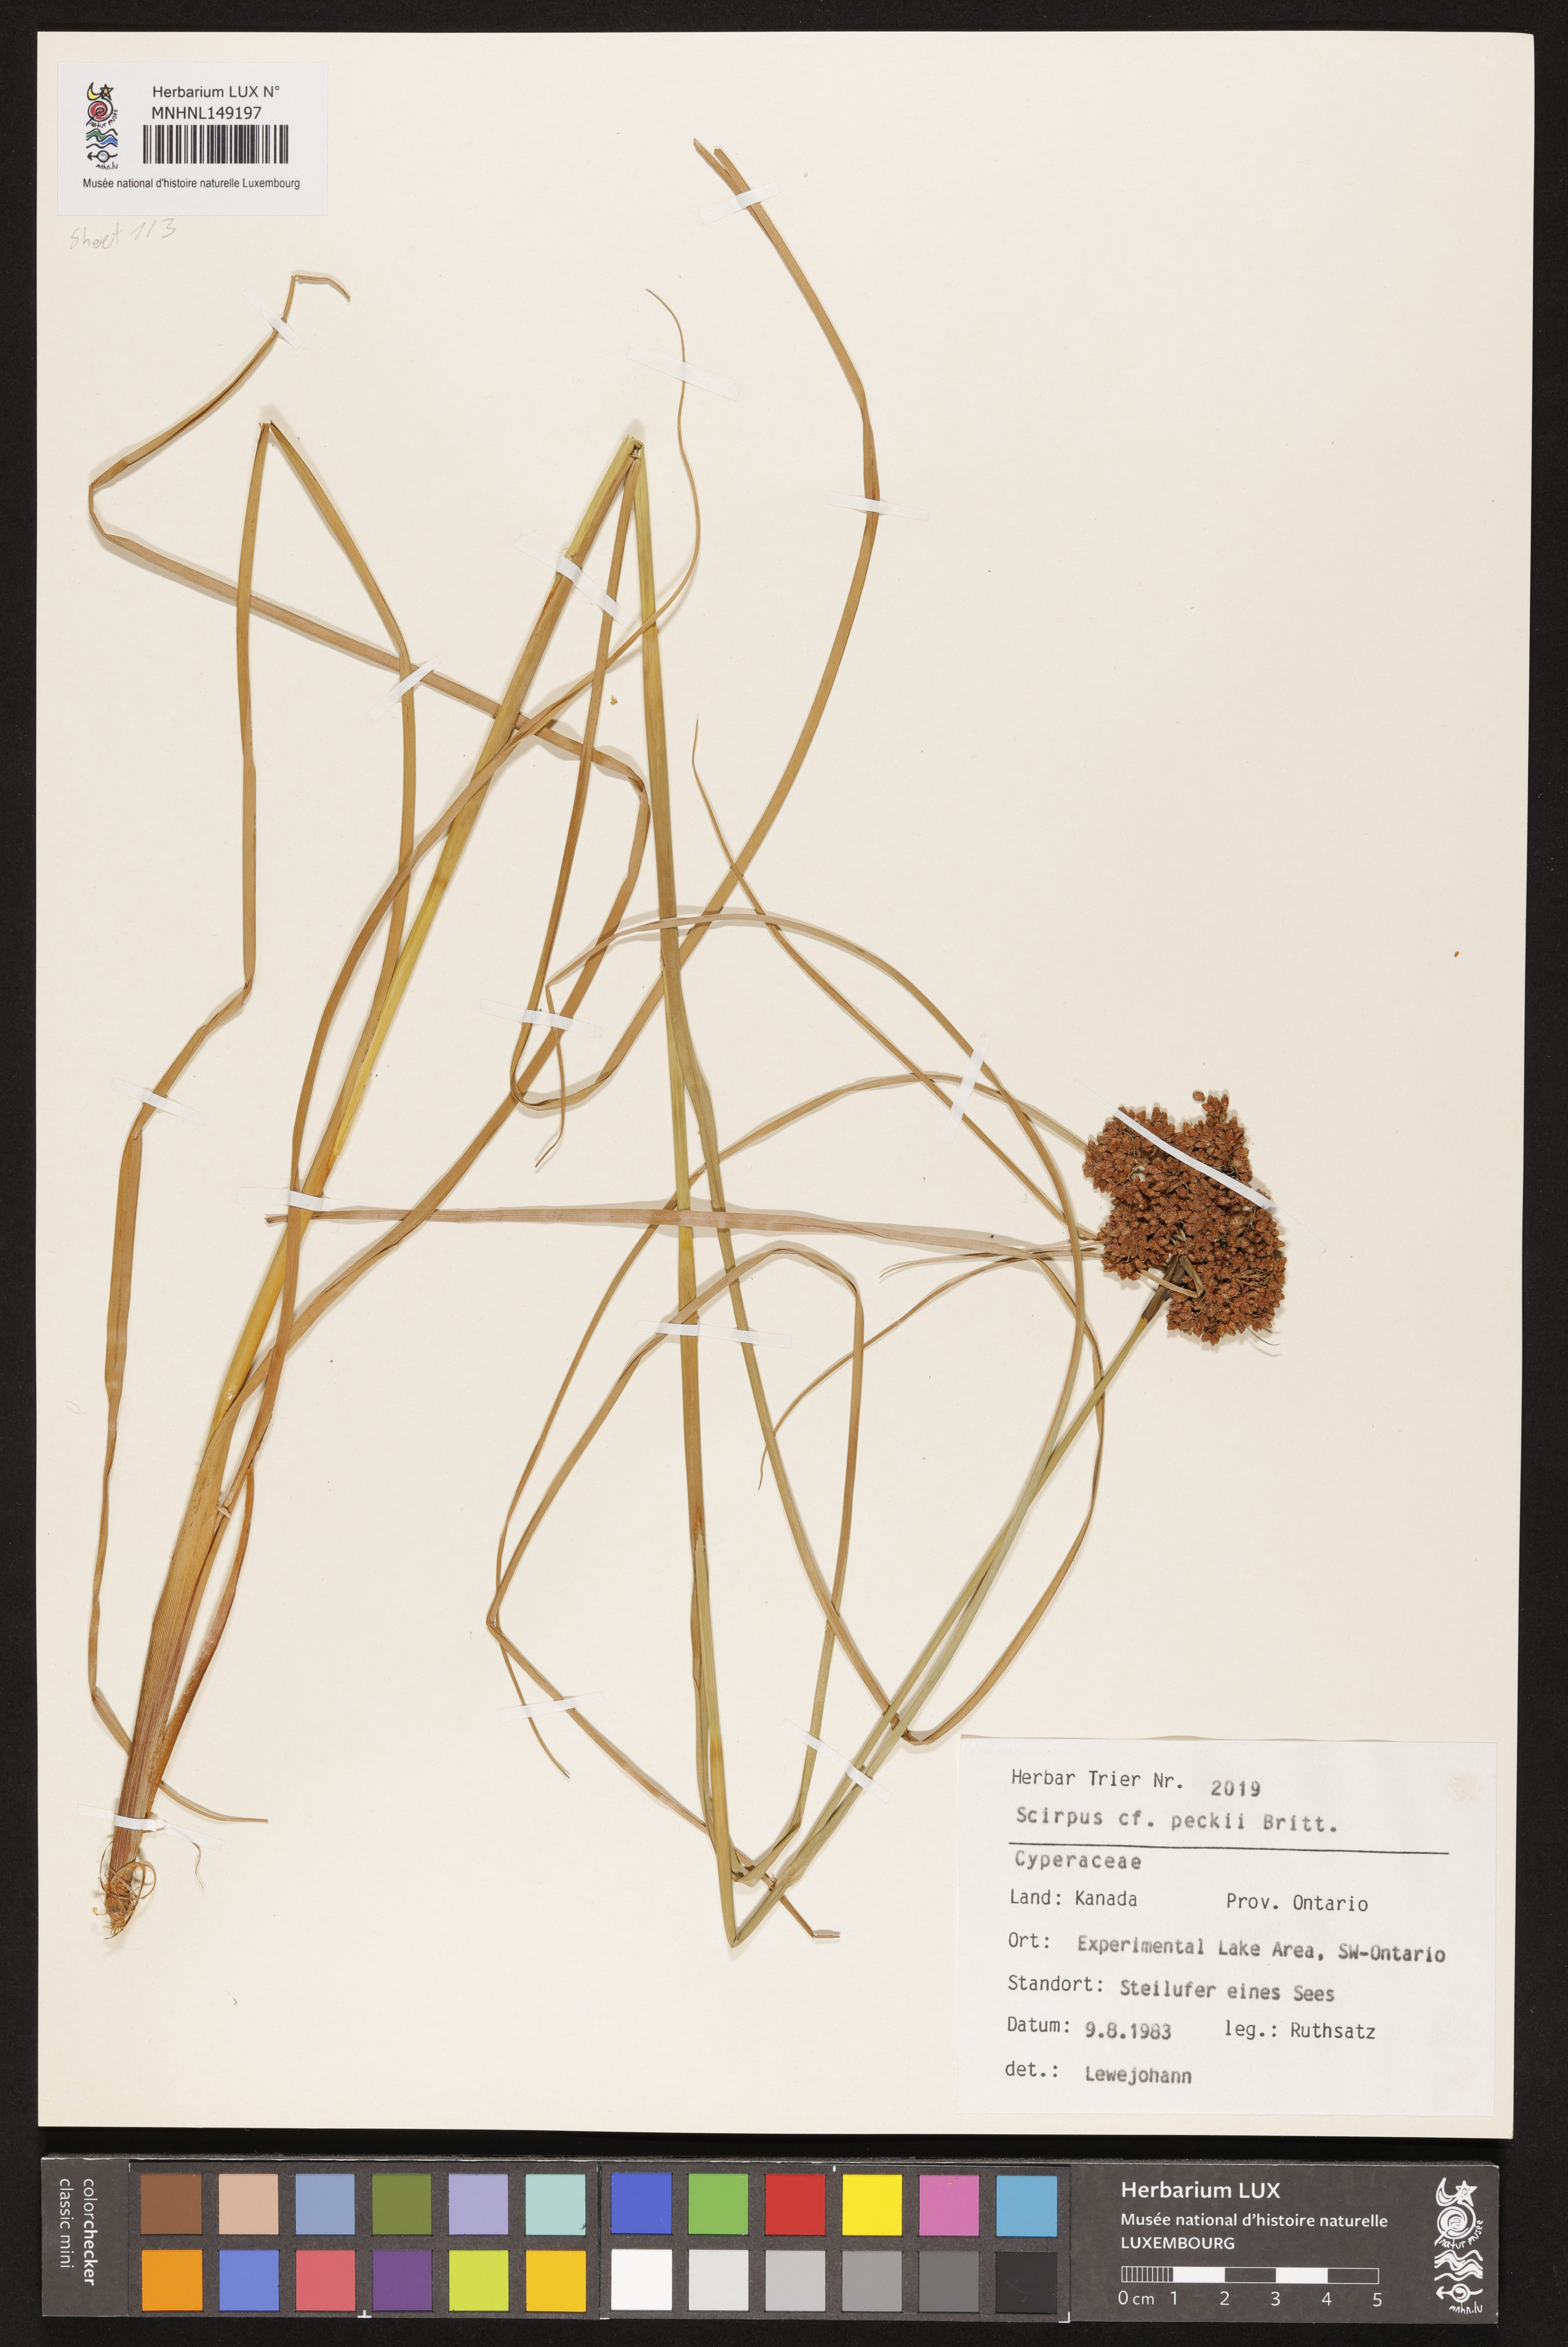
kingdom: Plantae
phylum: Tracheophyta
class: Liliopsida
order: Poales
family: Cyperaceae
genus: Scirpus
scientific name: Scirpus peckii
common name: Peck's bulrush
